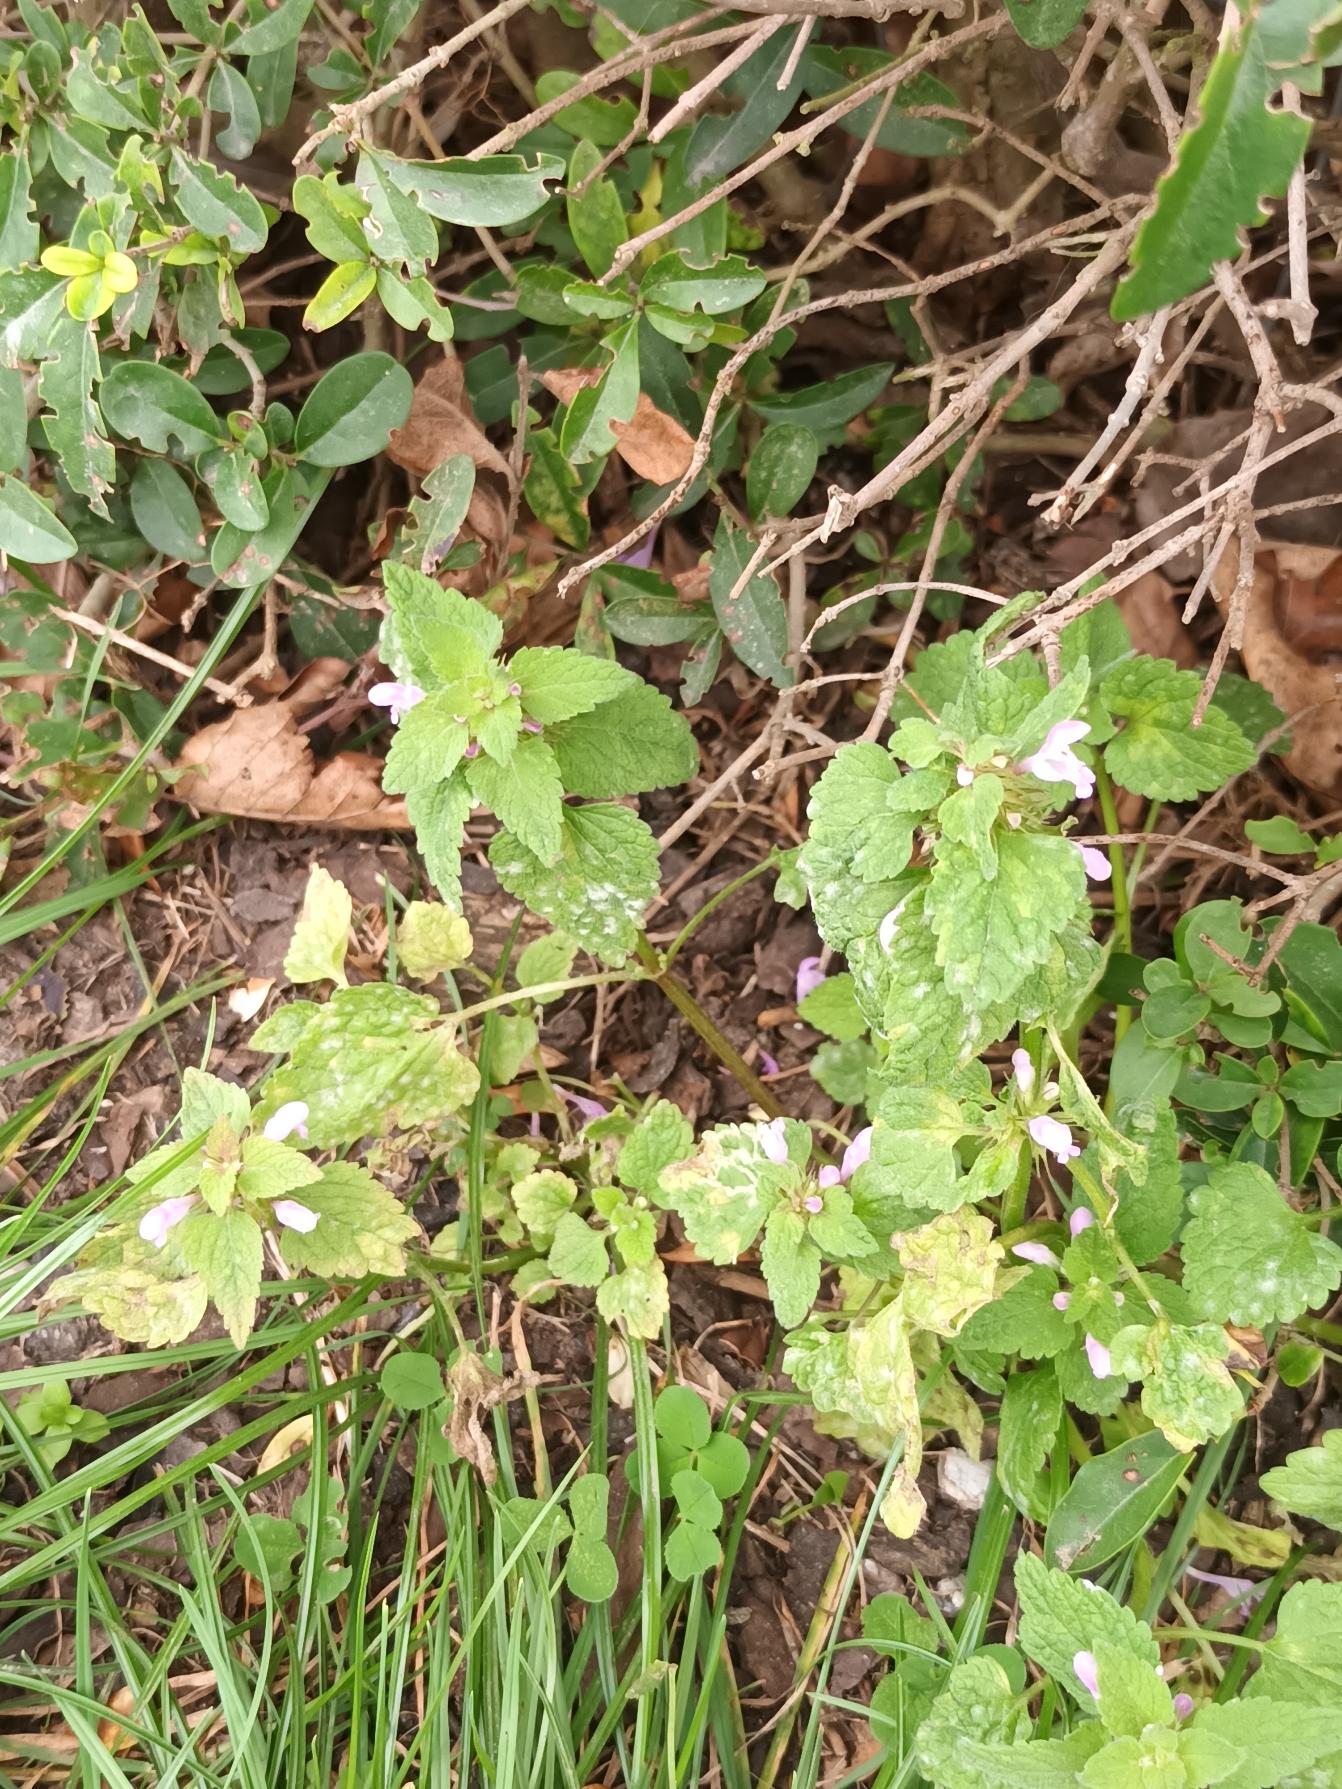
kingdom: Plantae
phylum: Tracheophyta
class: Magnoliopsida
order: Lamiales
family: Lamiaceae
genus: Lamium
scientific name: Lamium purpureum
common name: Rød tvetand
